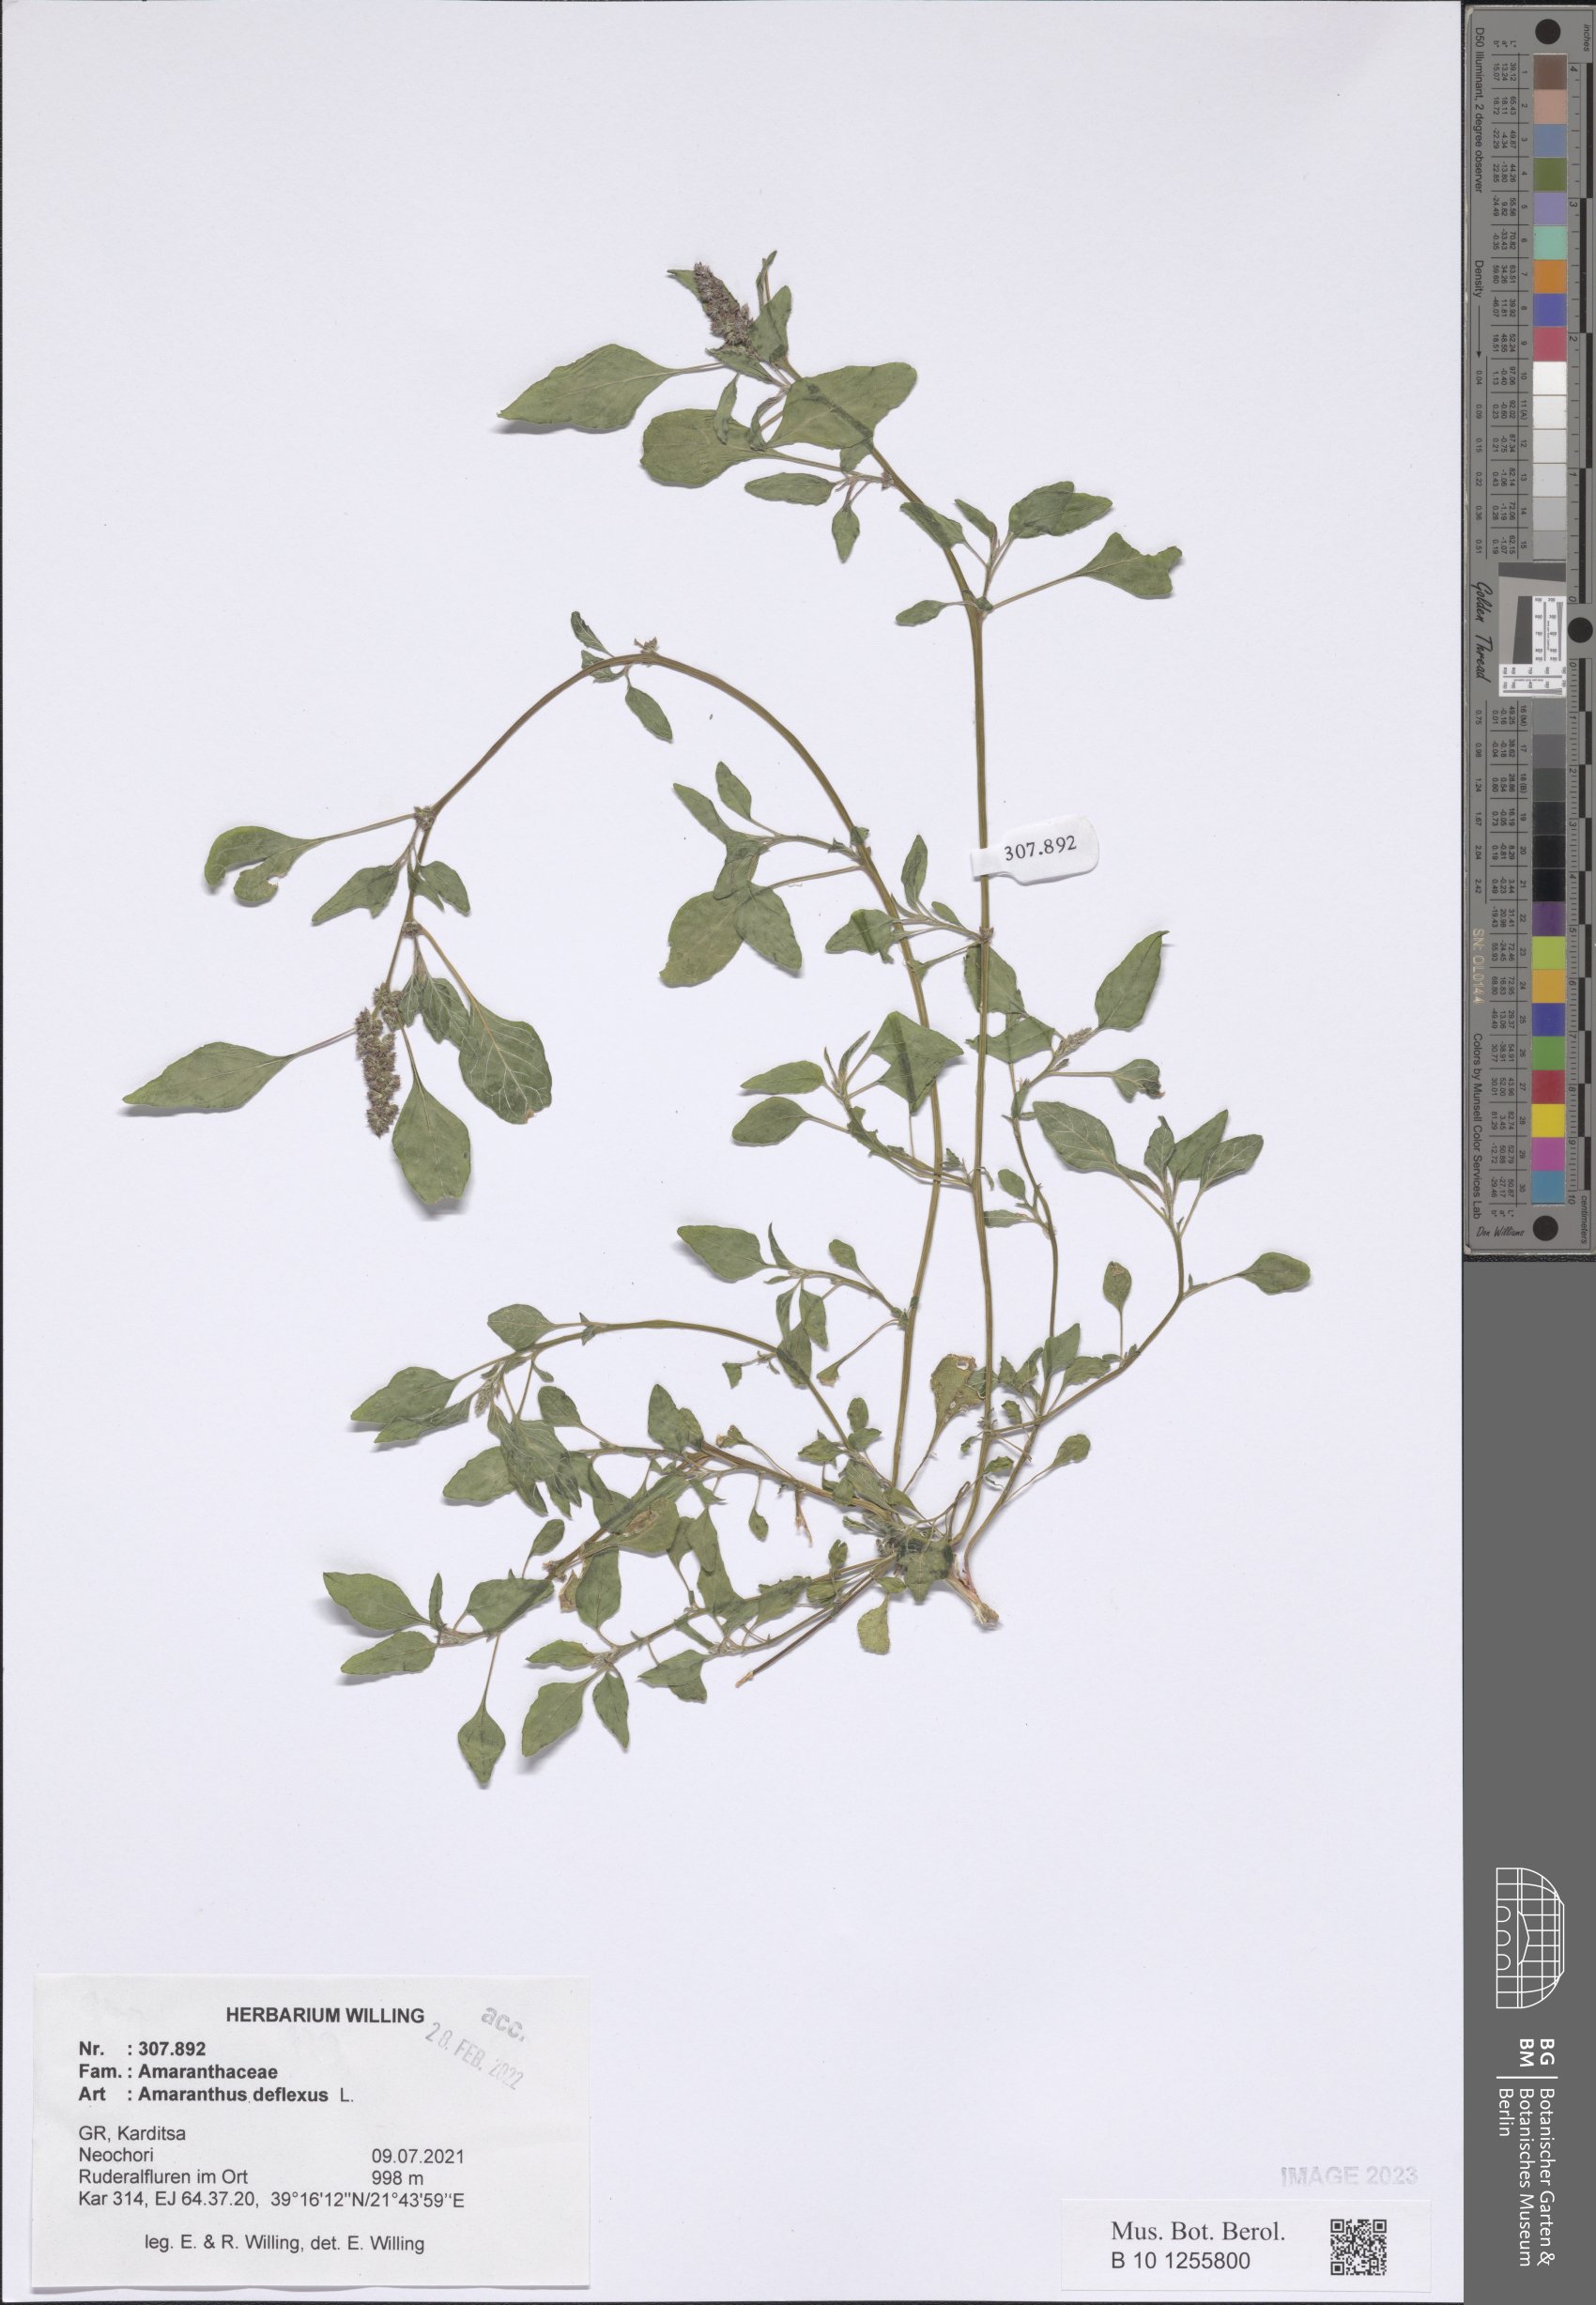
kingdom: Plantae
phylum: Tracheophyta
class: Magnoliopsida
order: Caryophyllales
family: Amaranthaceae
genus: Amaranthus
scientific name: Amaranthus deflexus
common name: Perennial pigweed
